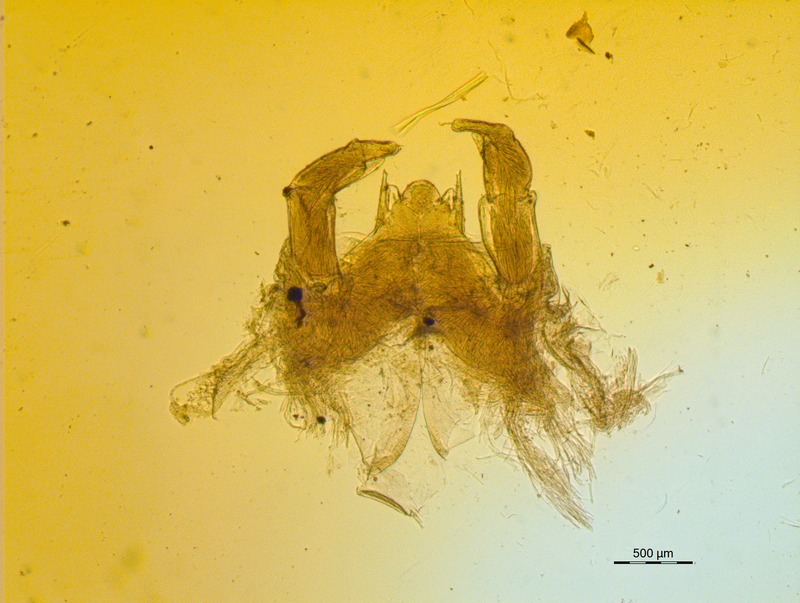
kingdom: Animalia
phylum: Arthropoda
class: Diplopoda
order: Glomerida
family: Glomeridellidae
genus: Typhloglomeris
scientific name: Typhloglomeris
